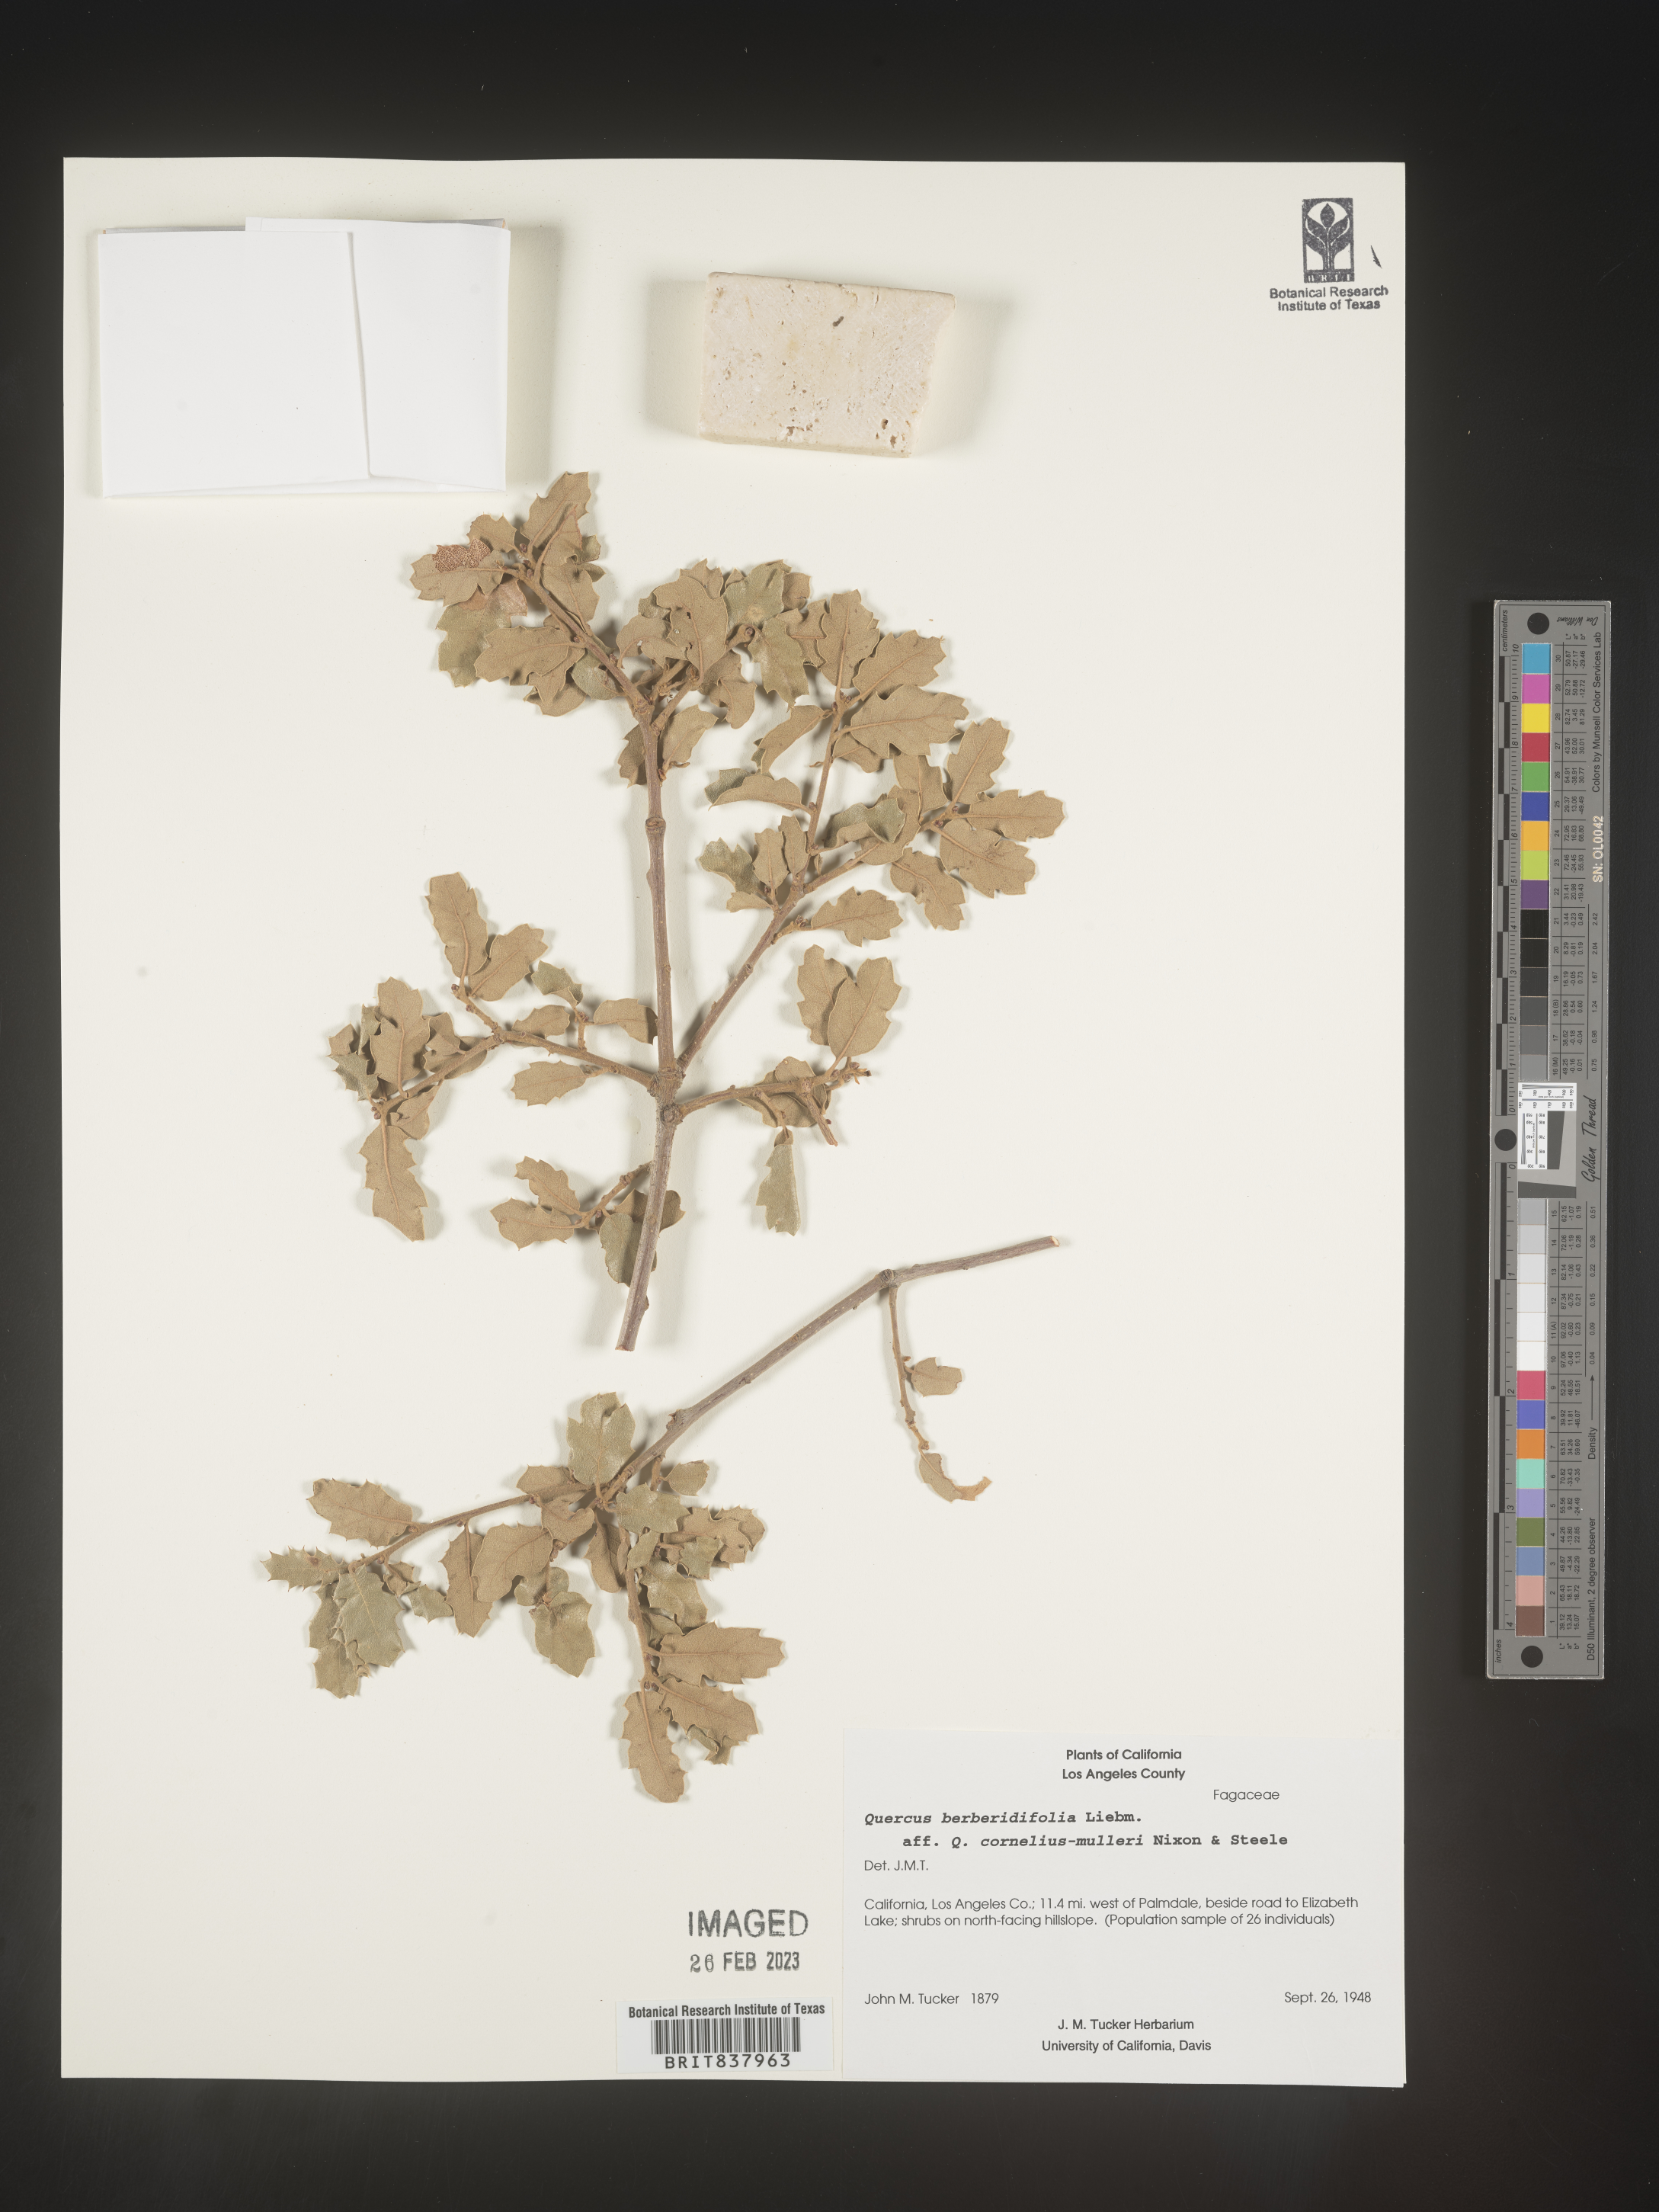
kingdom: Plantae
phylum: Tracheophyta
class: Magnoliopsida
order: Fagales
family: Fagaceae
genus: Quercus
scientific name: Quercus
